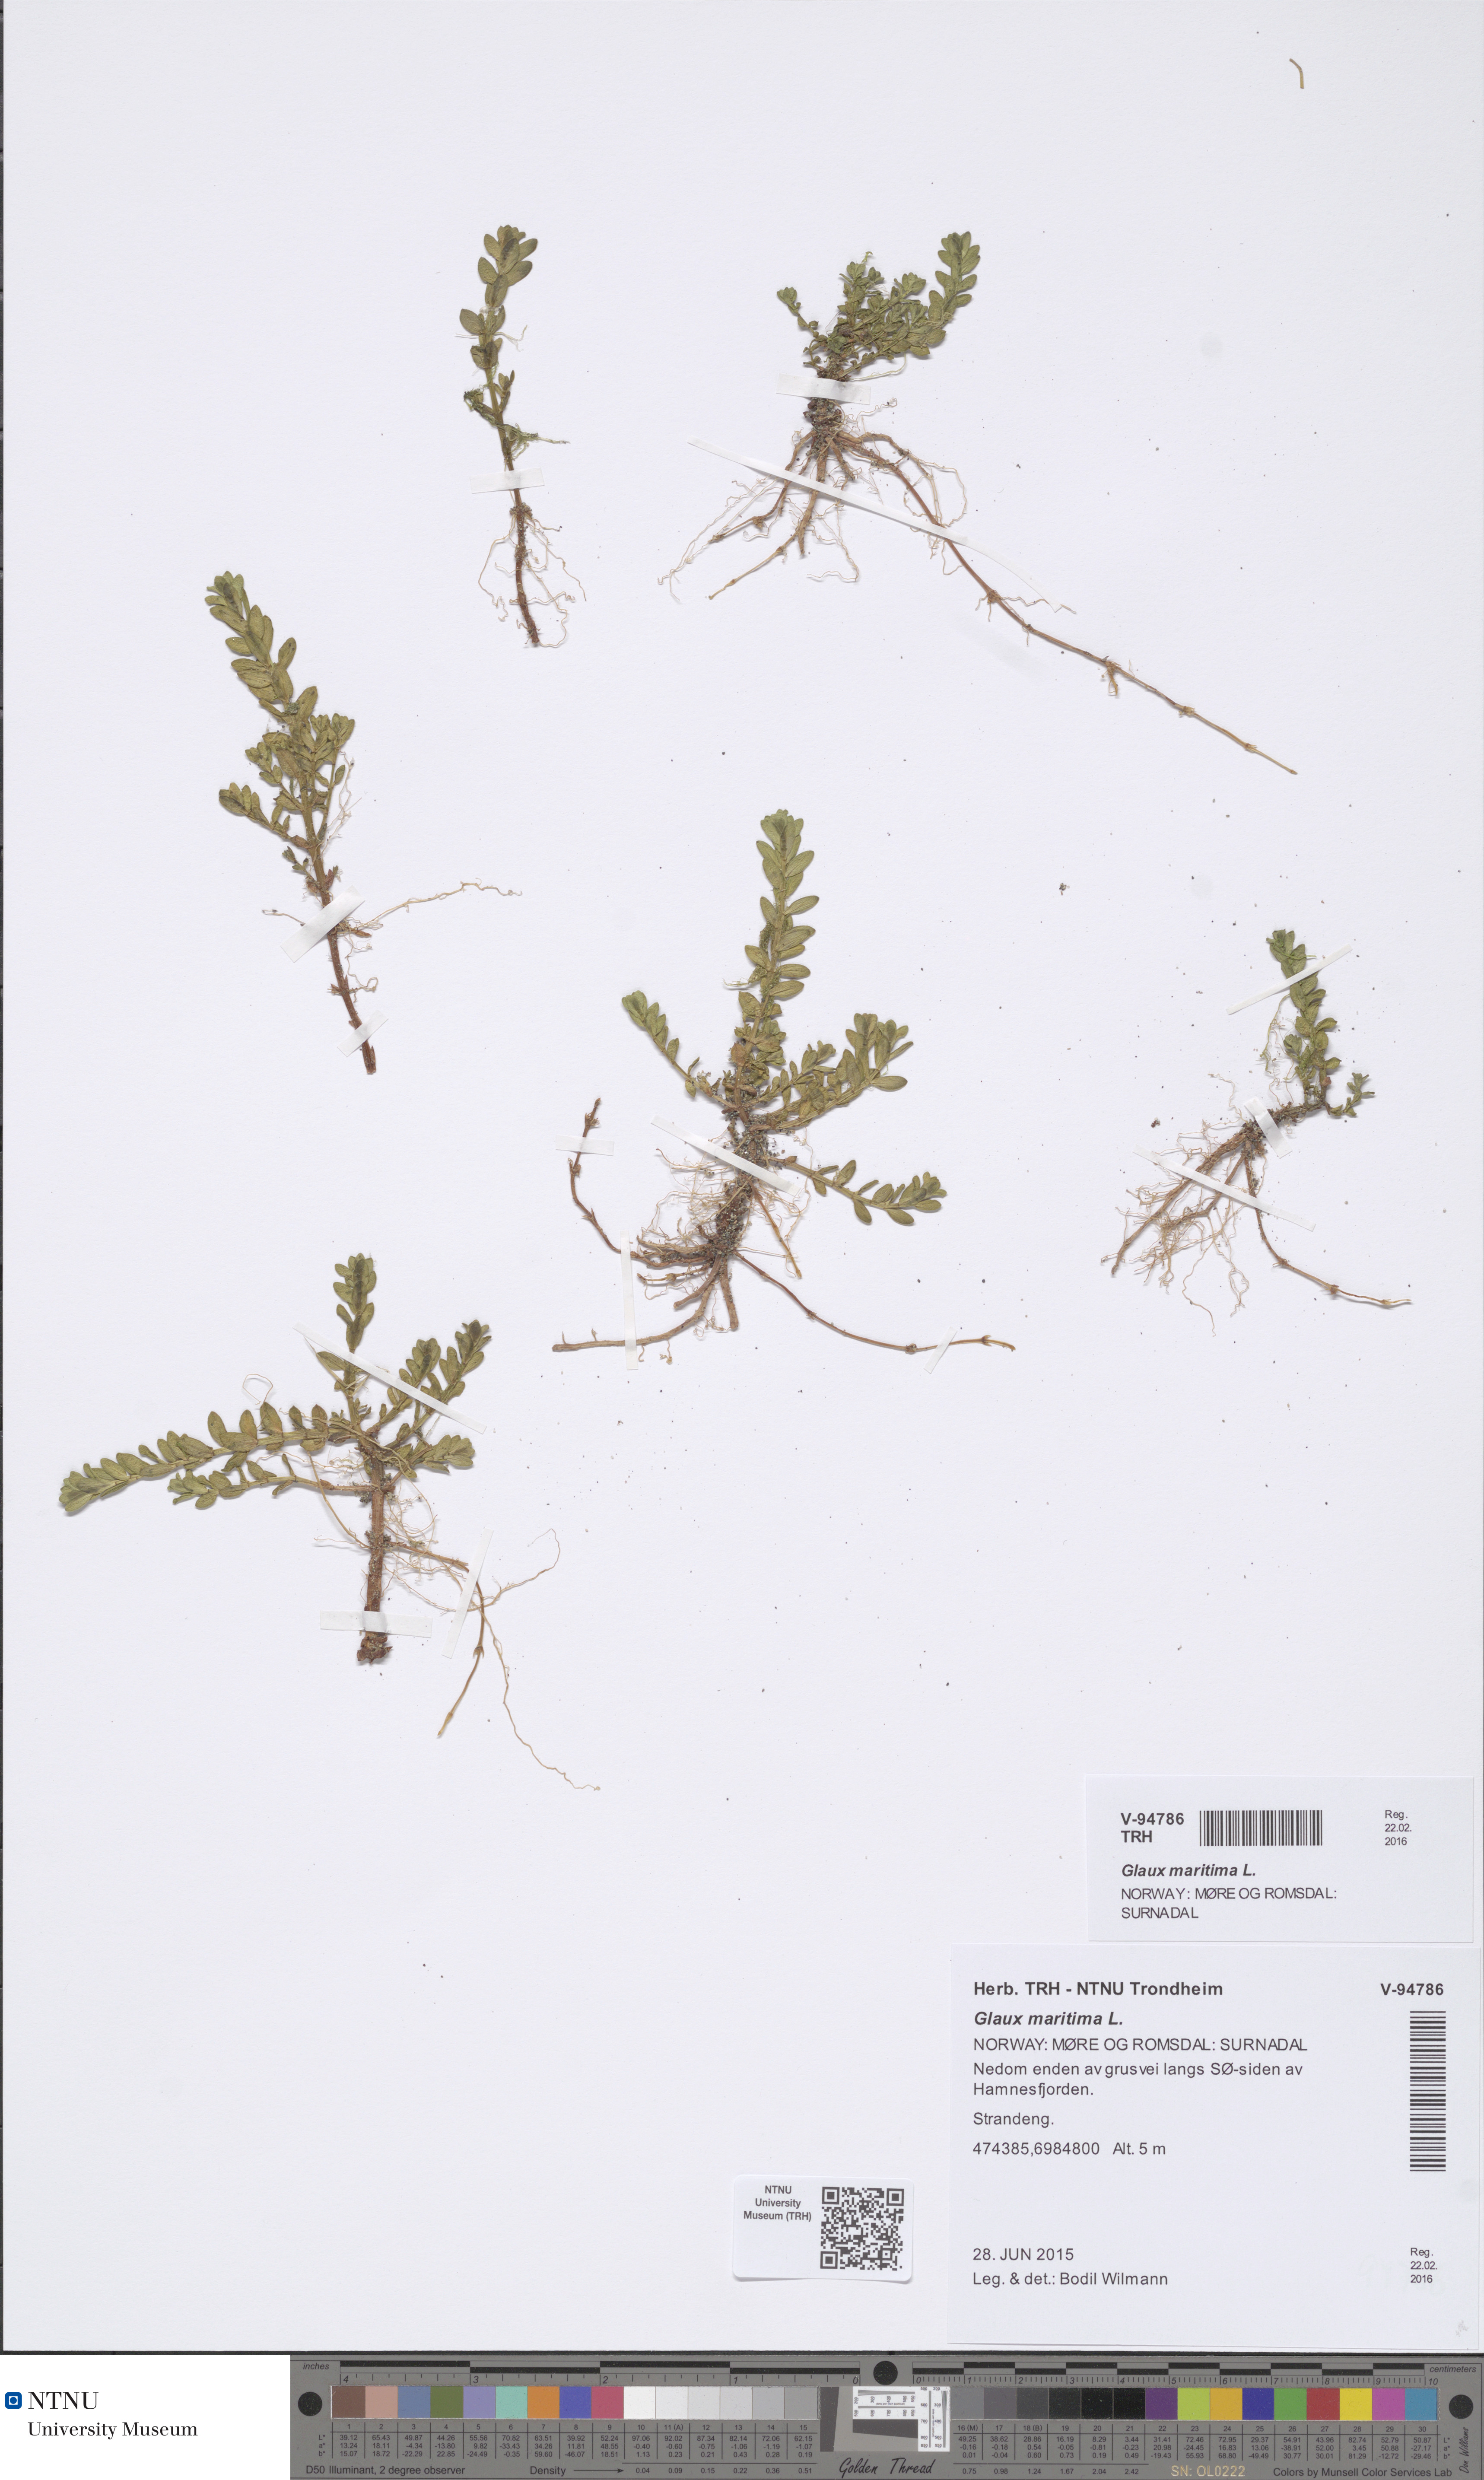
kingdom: Plantae
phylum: Tracheophyta
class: Magnoliopsida
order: Ericales
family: Primulaceae
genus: Lysimachia
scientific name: Lysimachia maritima
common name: Sea milkwort
